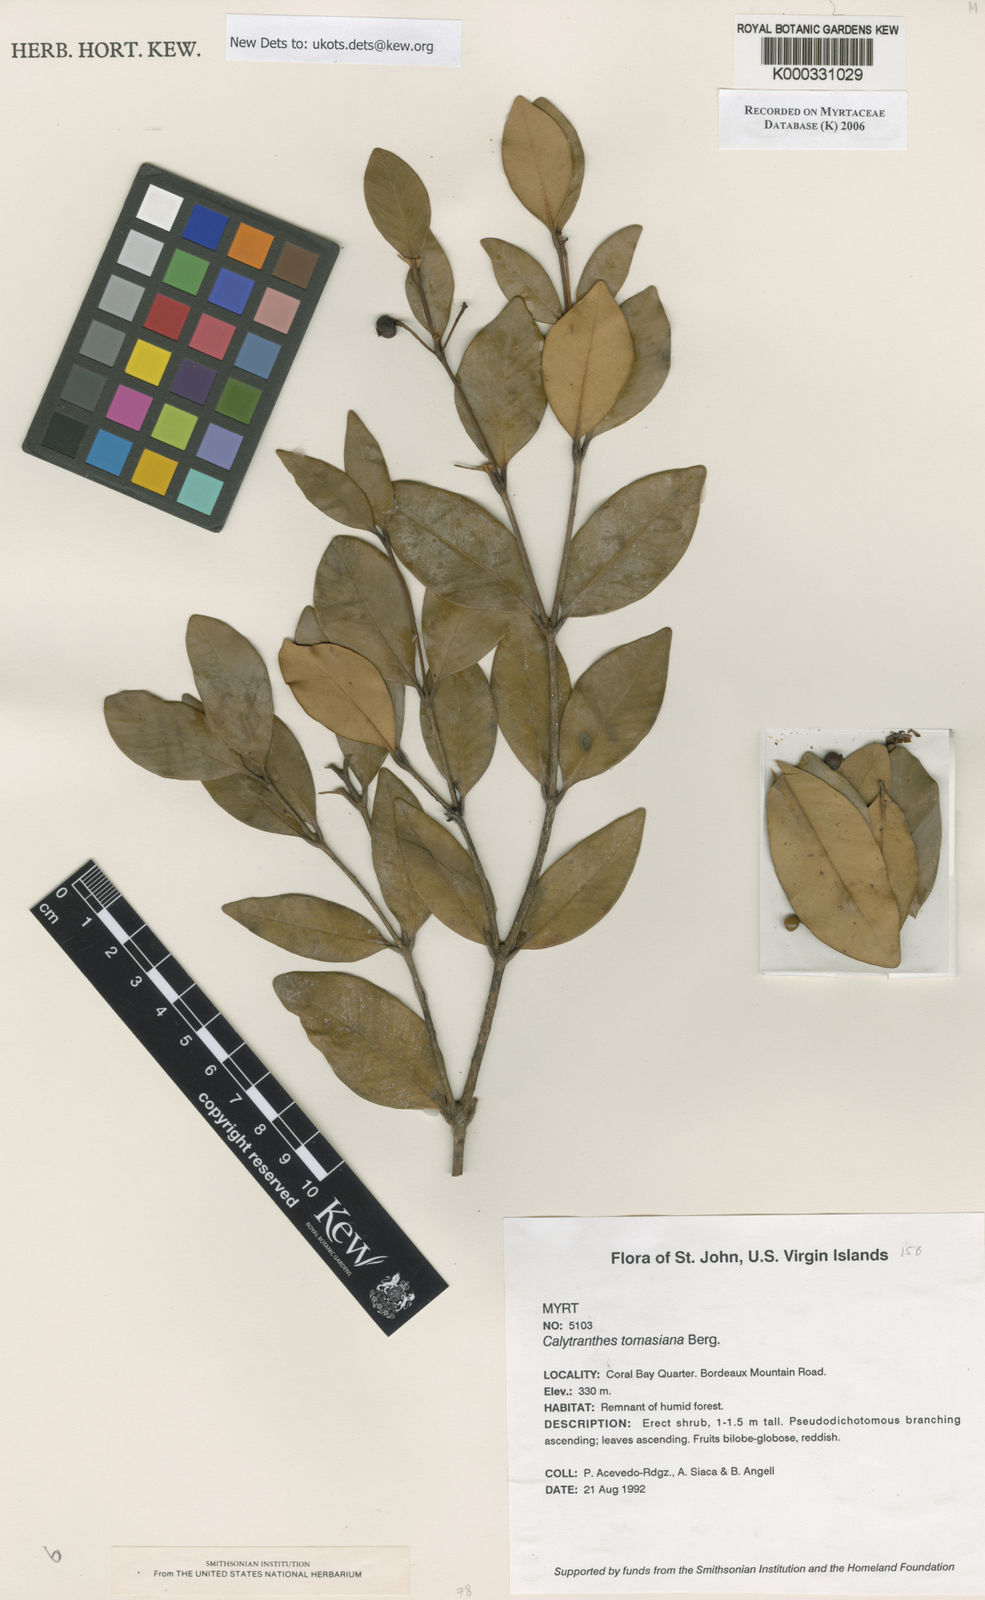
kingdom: Plantae
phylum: Tracheophyta
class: Magnoliopsida
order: Myrtales
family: Myrtaceae
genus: Myrcia
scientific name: Myrcia neothomasiana
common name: St. thomas lidflower
